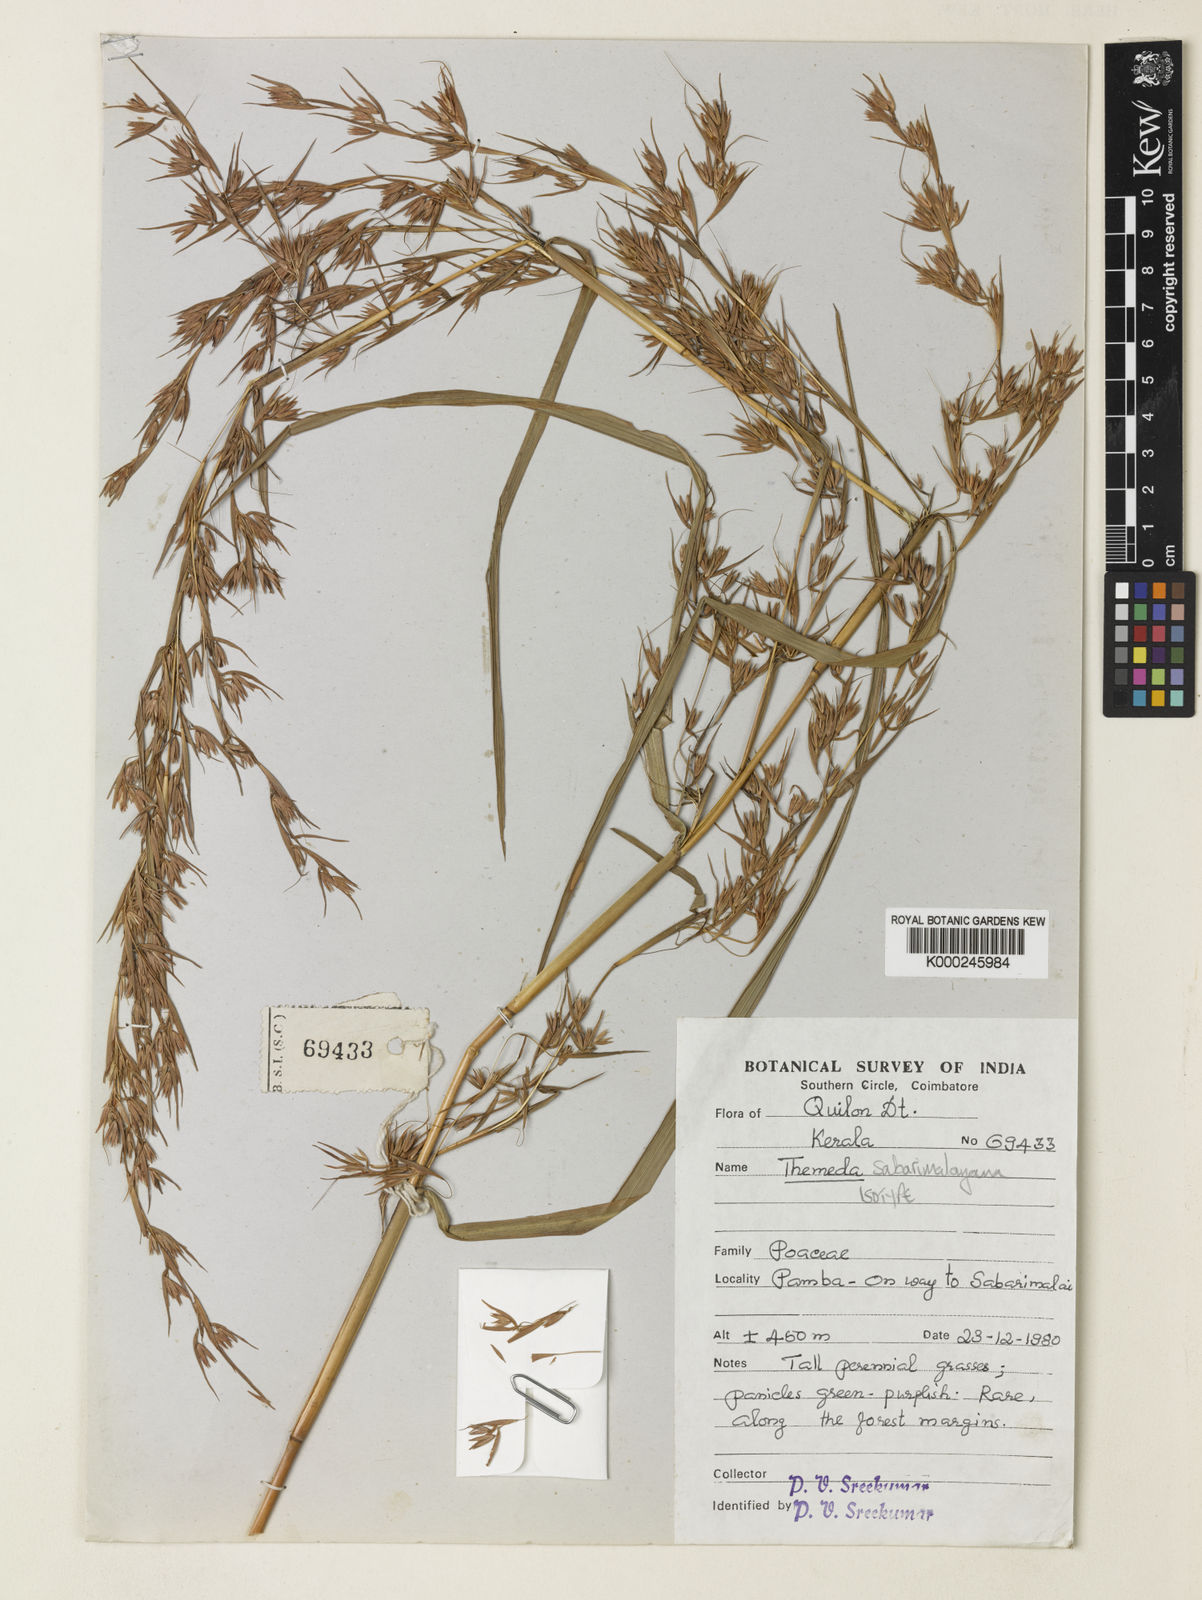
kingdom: Plantae
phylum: Tracheophyta
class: Liliopsida
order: Poales
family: Poaceae
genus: Themeda
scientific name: Themeda sabarimalayana
